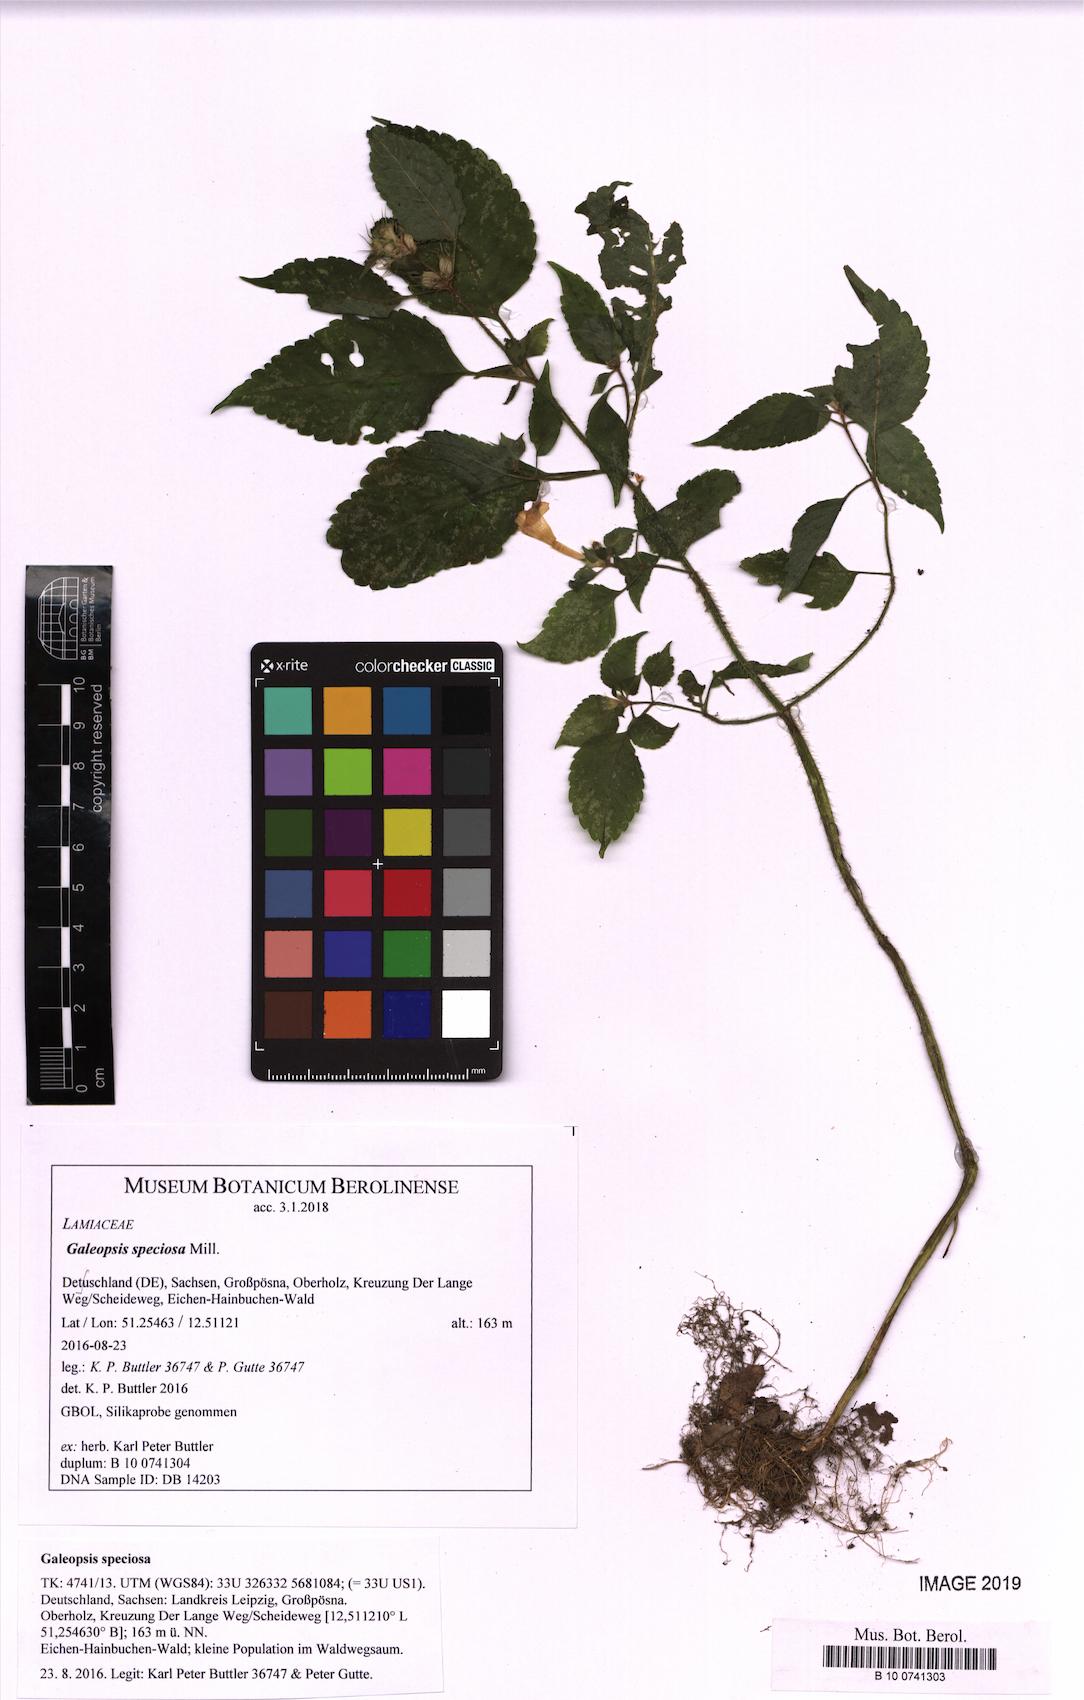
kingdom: Plantae
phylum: Tracheophyta
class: Magnoliopsida
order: Lamiales
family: Lamiaceae
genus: Galeopsis
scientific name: Galeopsis speciosa
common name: Large-flowered hemp-nettle
